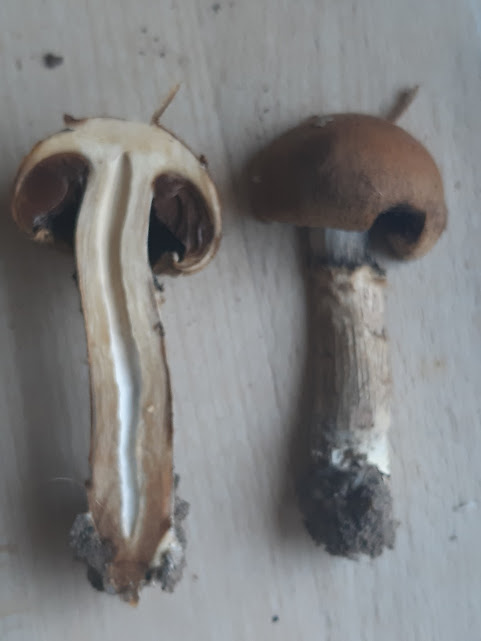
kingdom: Fungi
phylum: Basidiomycota
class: Agaricomycetes
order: Agaricales
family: Psathyrellaceae
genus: Lacrymaria
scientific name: Lacrymaria lacrymabunda
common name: grædende mørkhat
